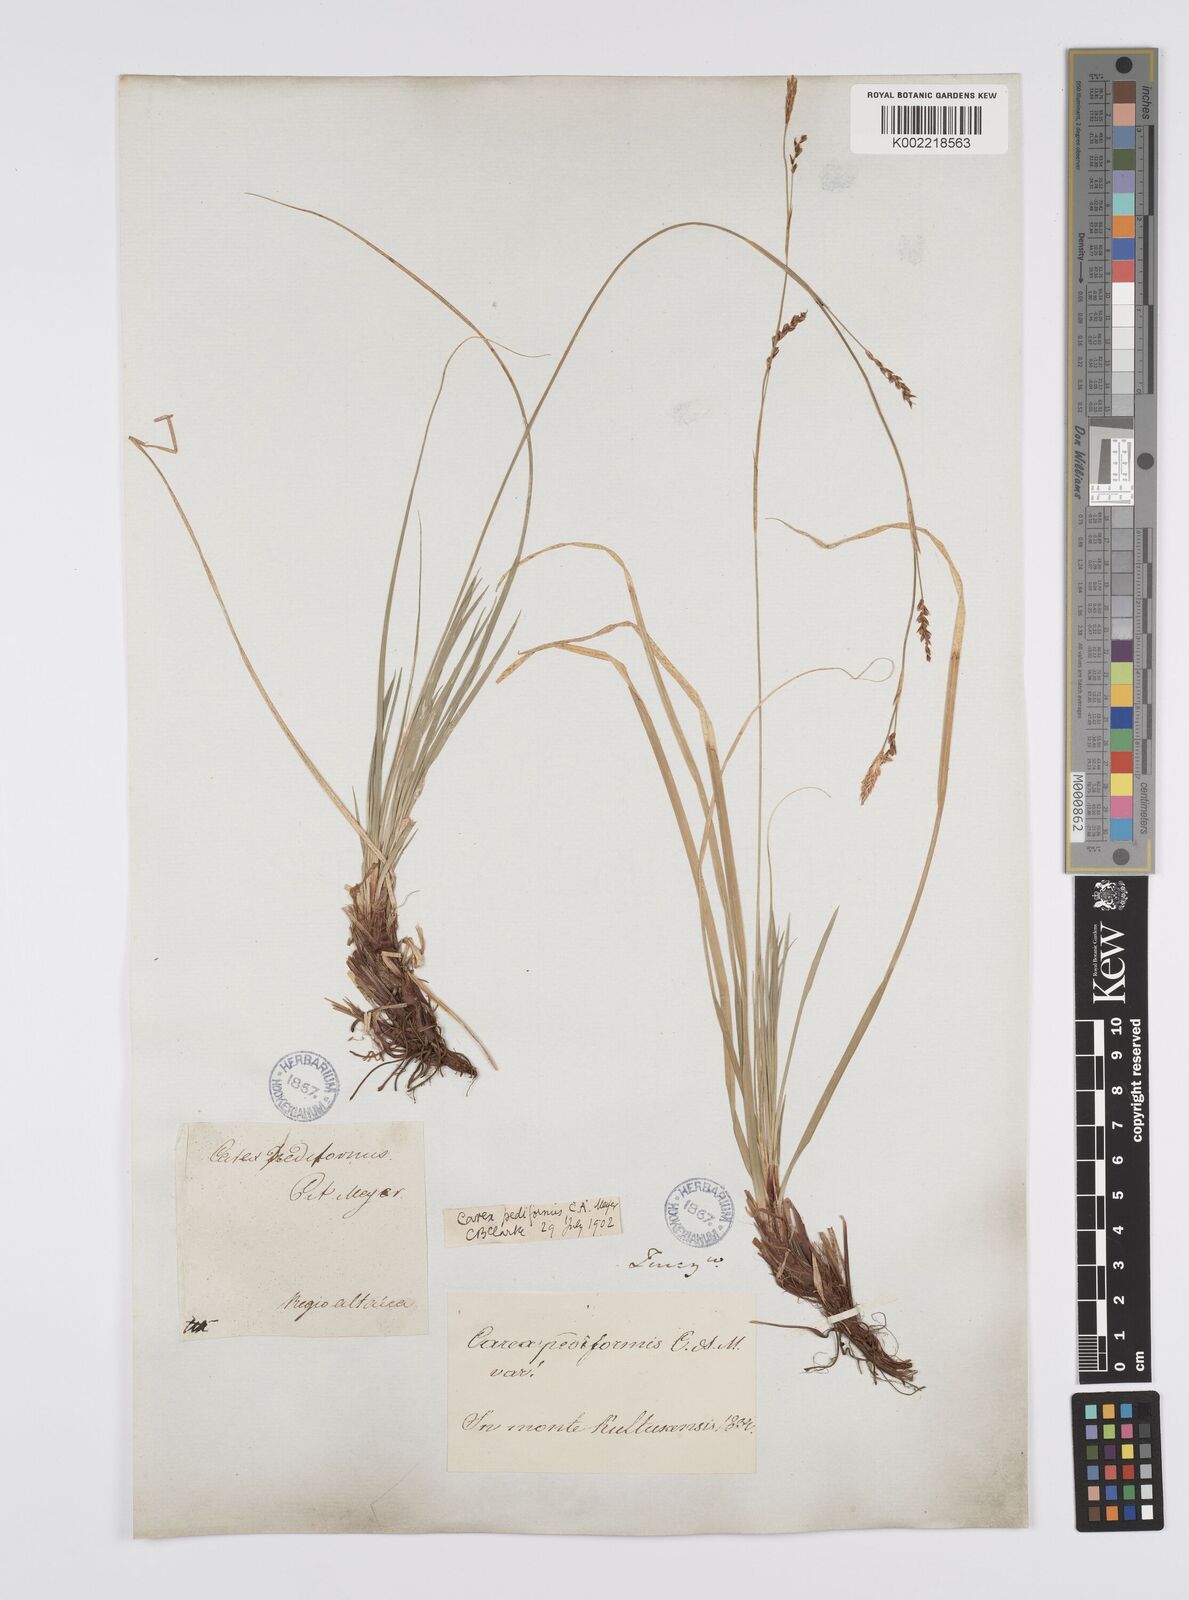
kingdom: Plantae
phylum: Tracheophyta
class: Liliopsida
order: Poales
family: Cyperaceae
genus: Carex
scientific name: Carex pediformis
